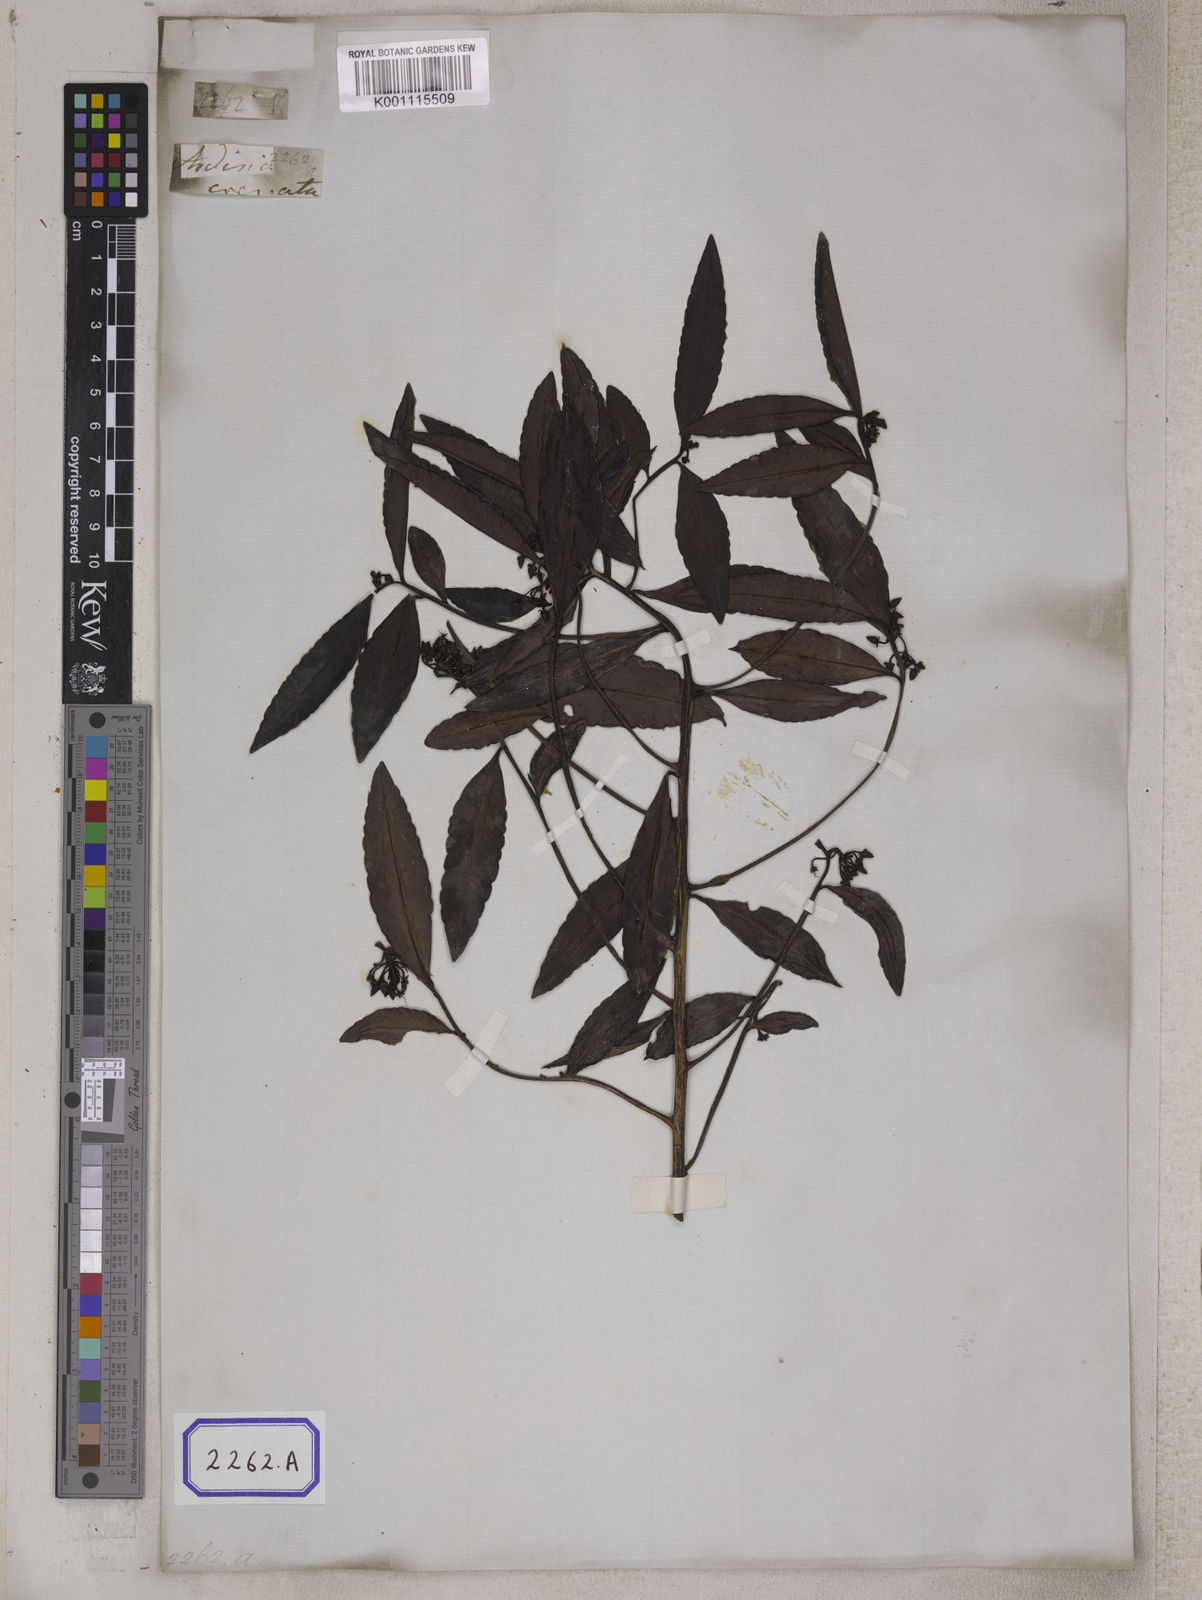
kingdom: Plantae
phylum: Tracheophyta
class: Magnoliopsida
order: Ericales
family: Primulaceae
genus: Ardisia
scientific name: Ardisia
